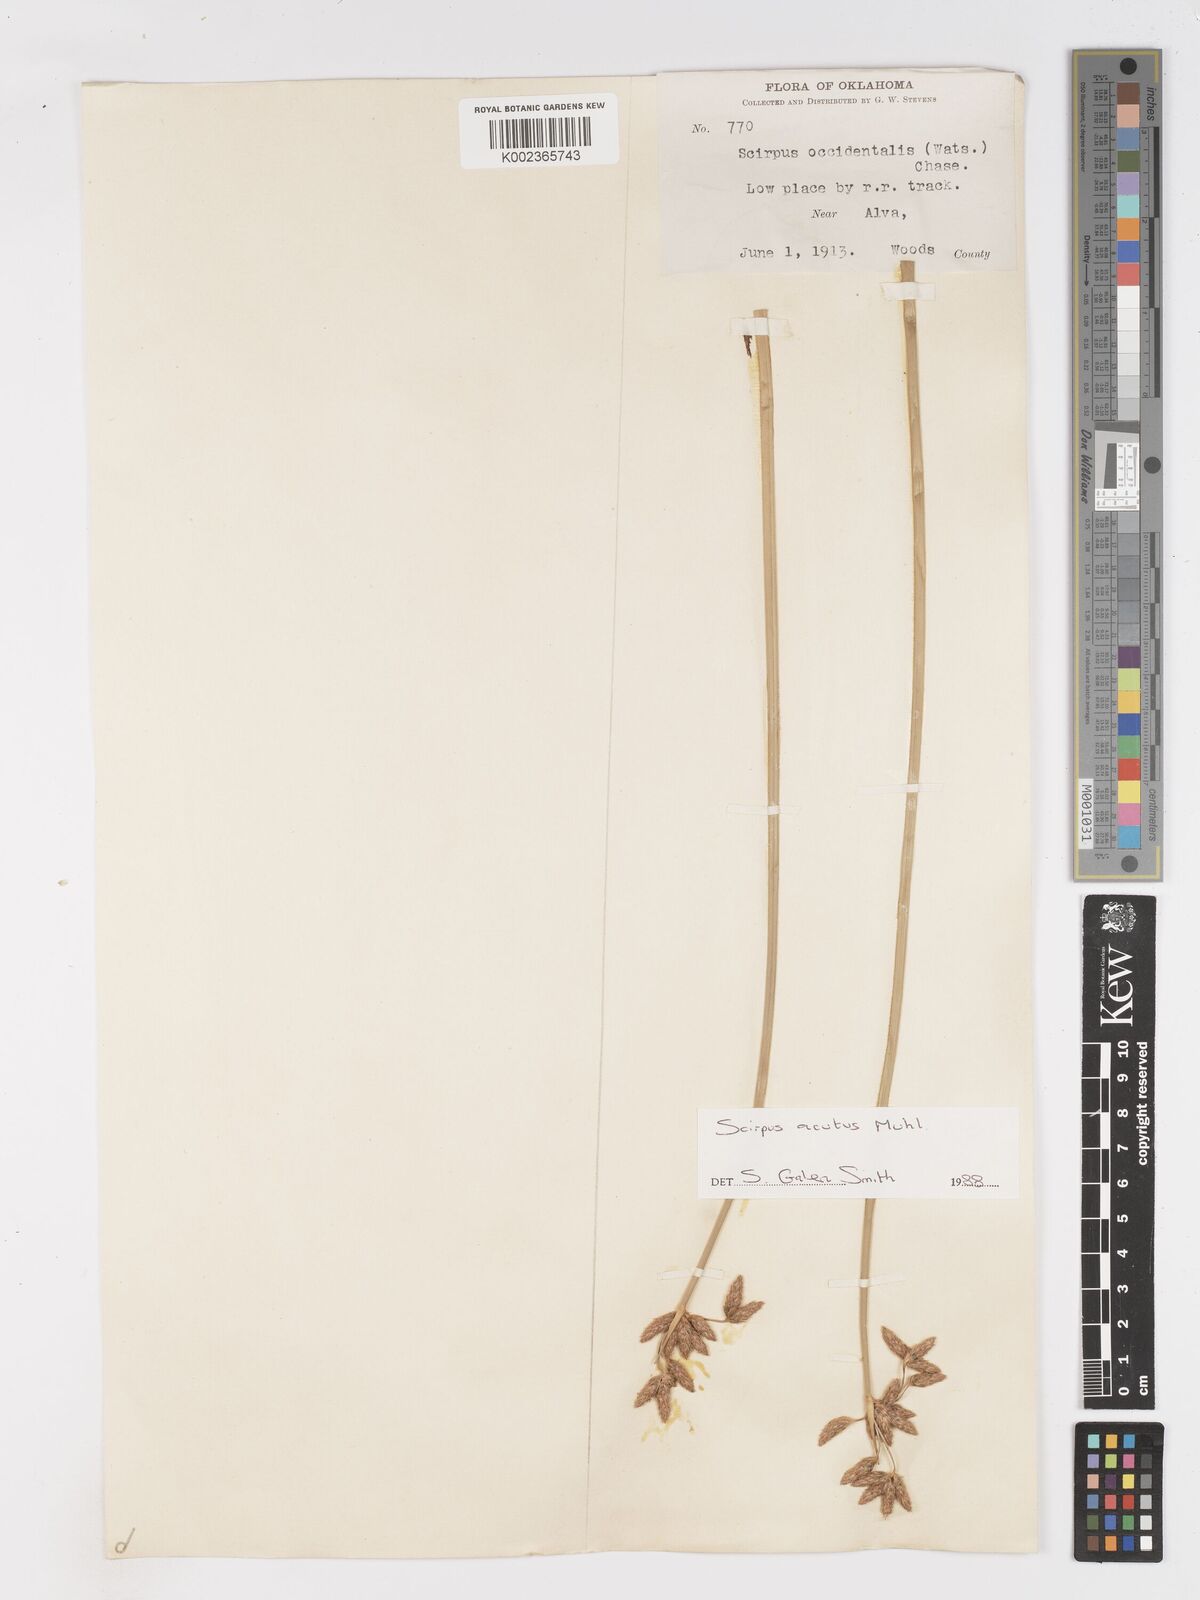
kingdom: Plantae
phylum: Tracheophyta
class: Liliopsida
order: Poales
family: Cyperaceae
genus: Schoenoplectus
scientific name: Schoenoplectus
